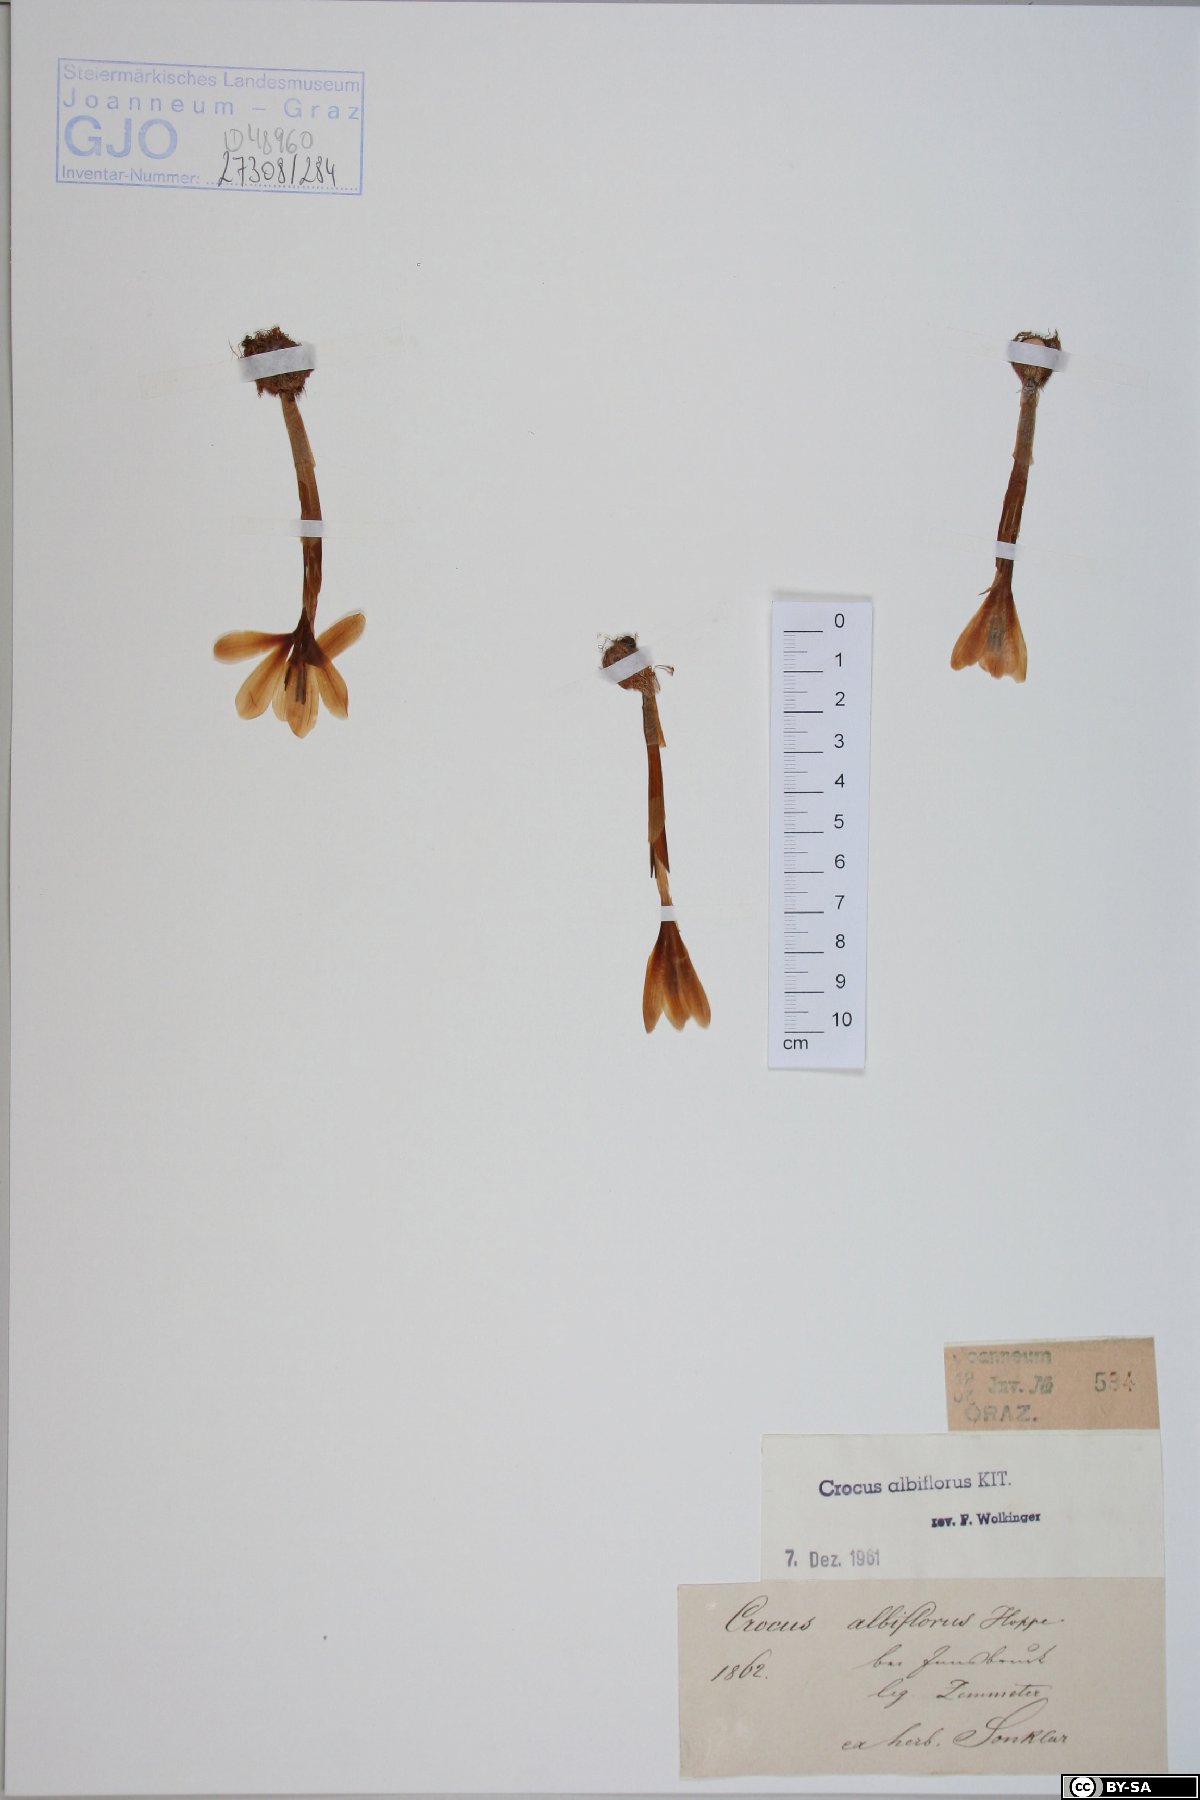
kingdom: Plantae
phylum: Tracheophyta
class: Liliopsida
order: Asparagales
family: Iridaceae
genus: Crocus
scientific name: Crocus vernus
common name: Spring crocus
